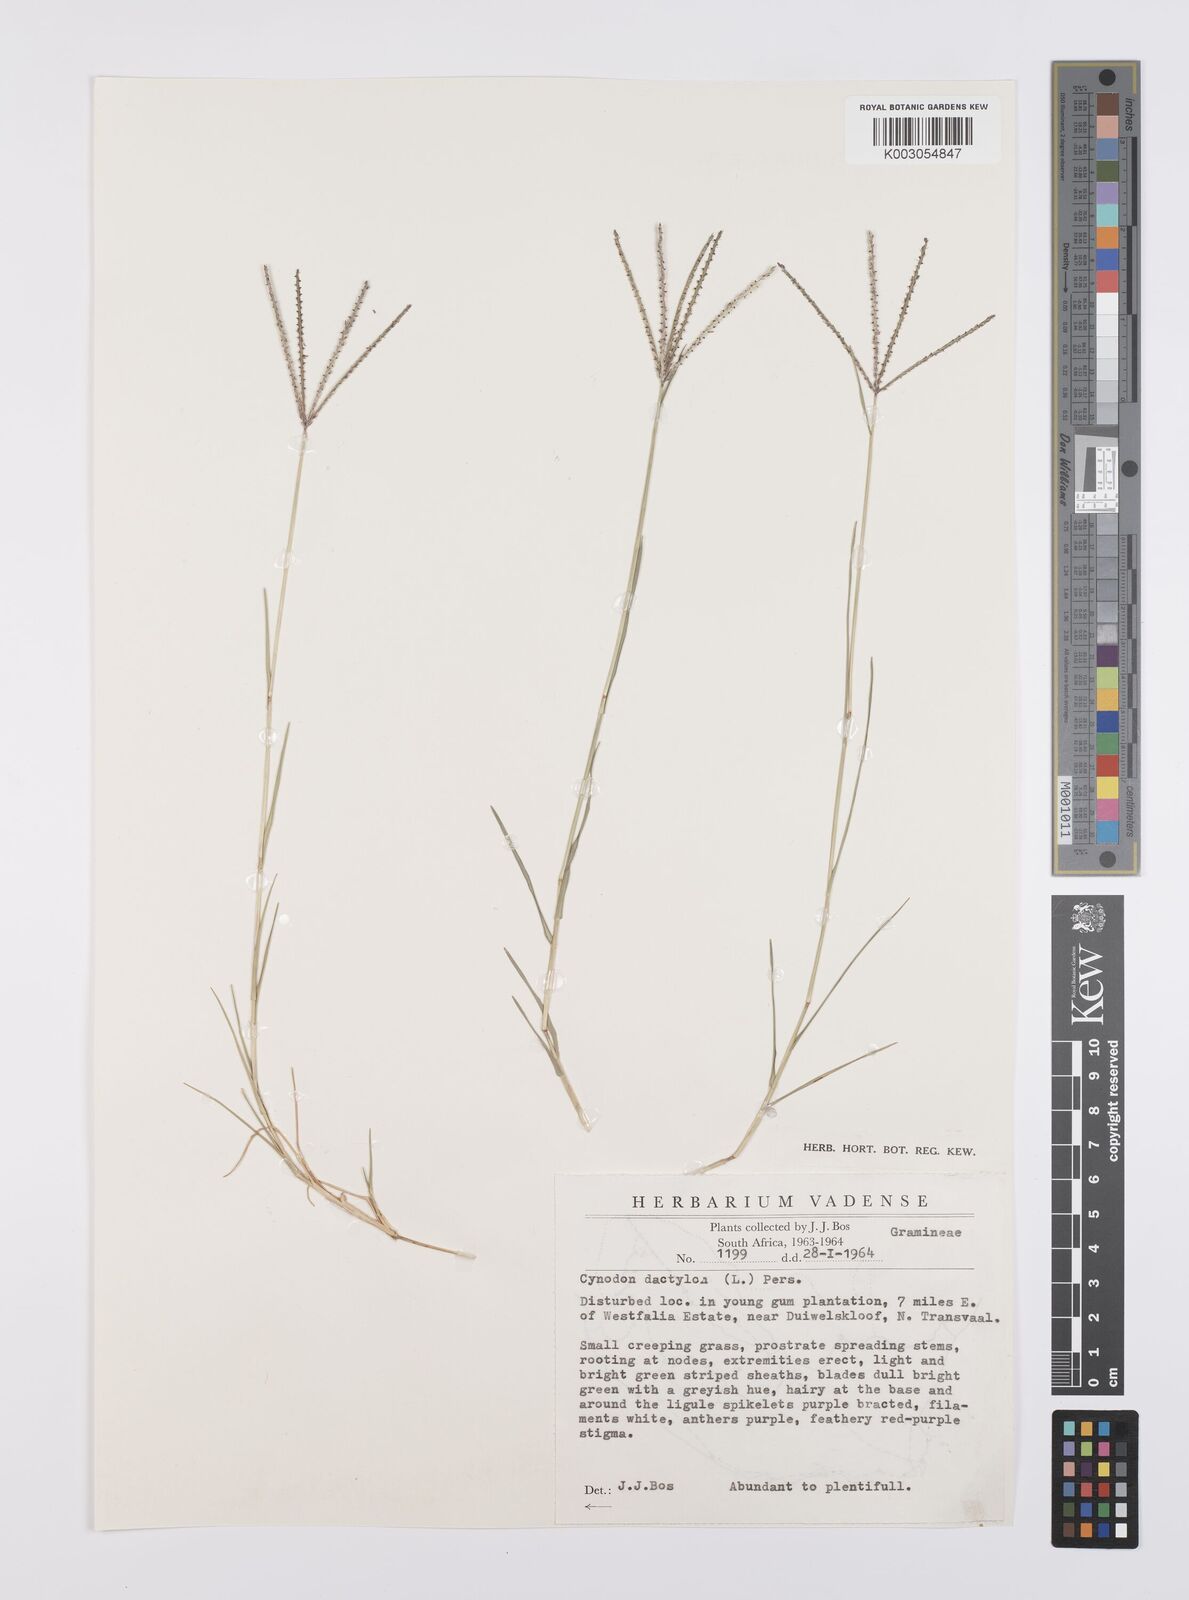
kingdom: Plantae
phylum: Tracheophyta
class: Liliopsida
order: Poales
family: Poaceae
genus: Cynodon
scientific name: Cynodon dactylon
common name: Bermuda grass
